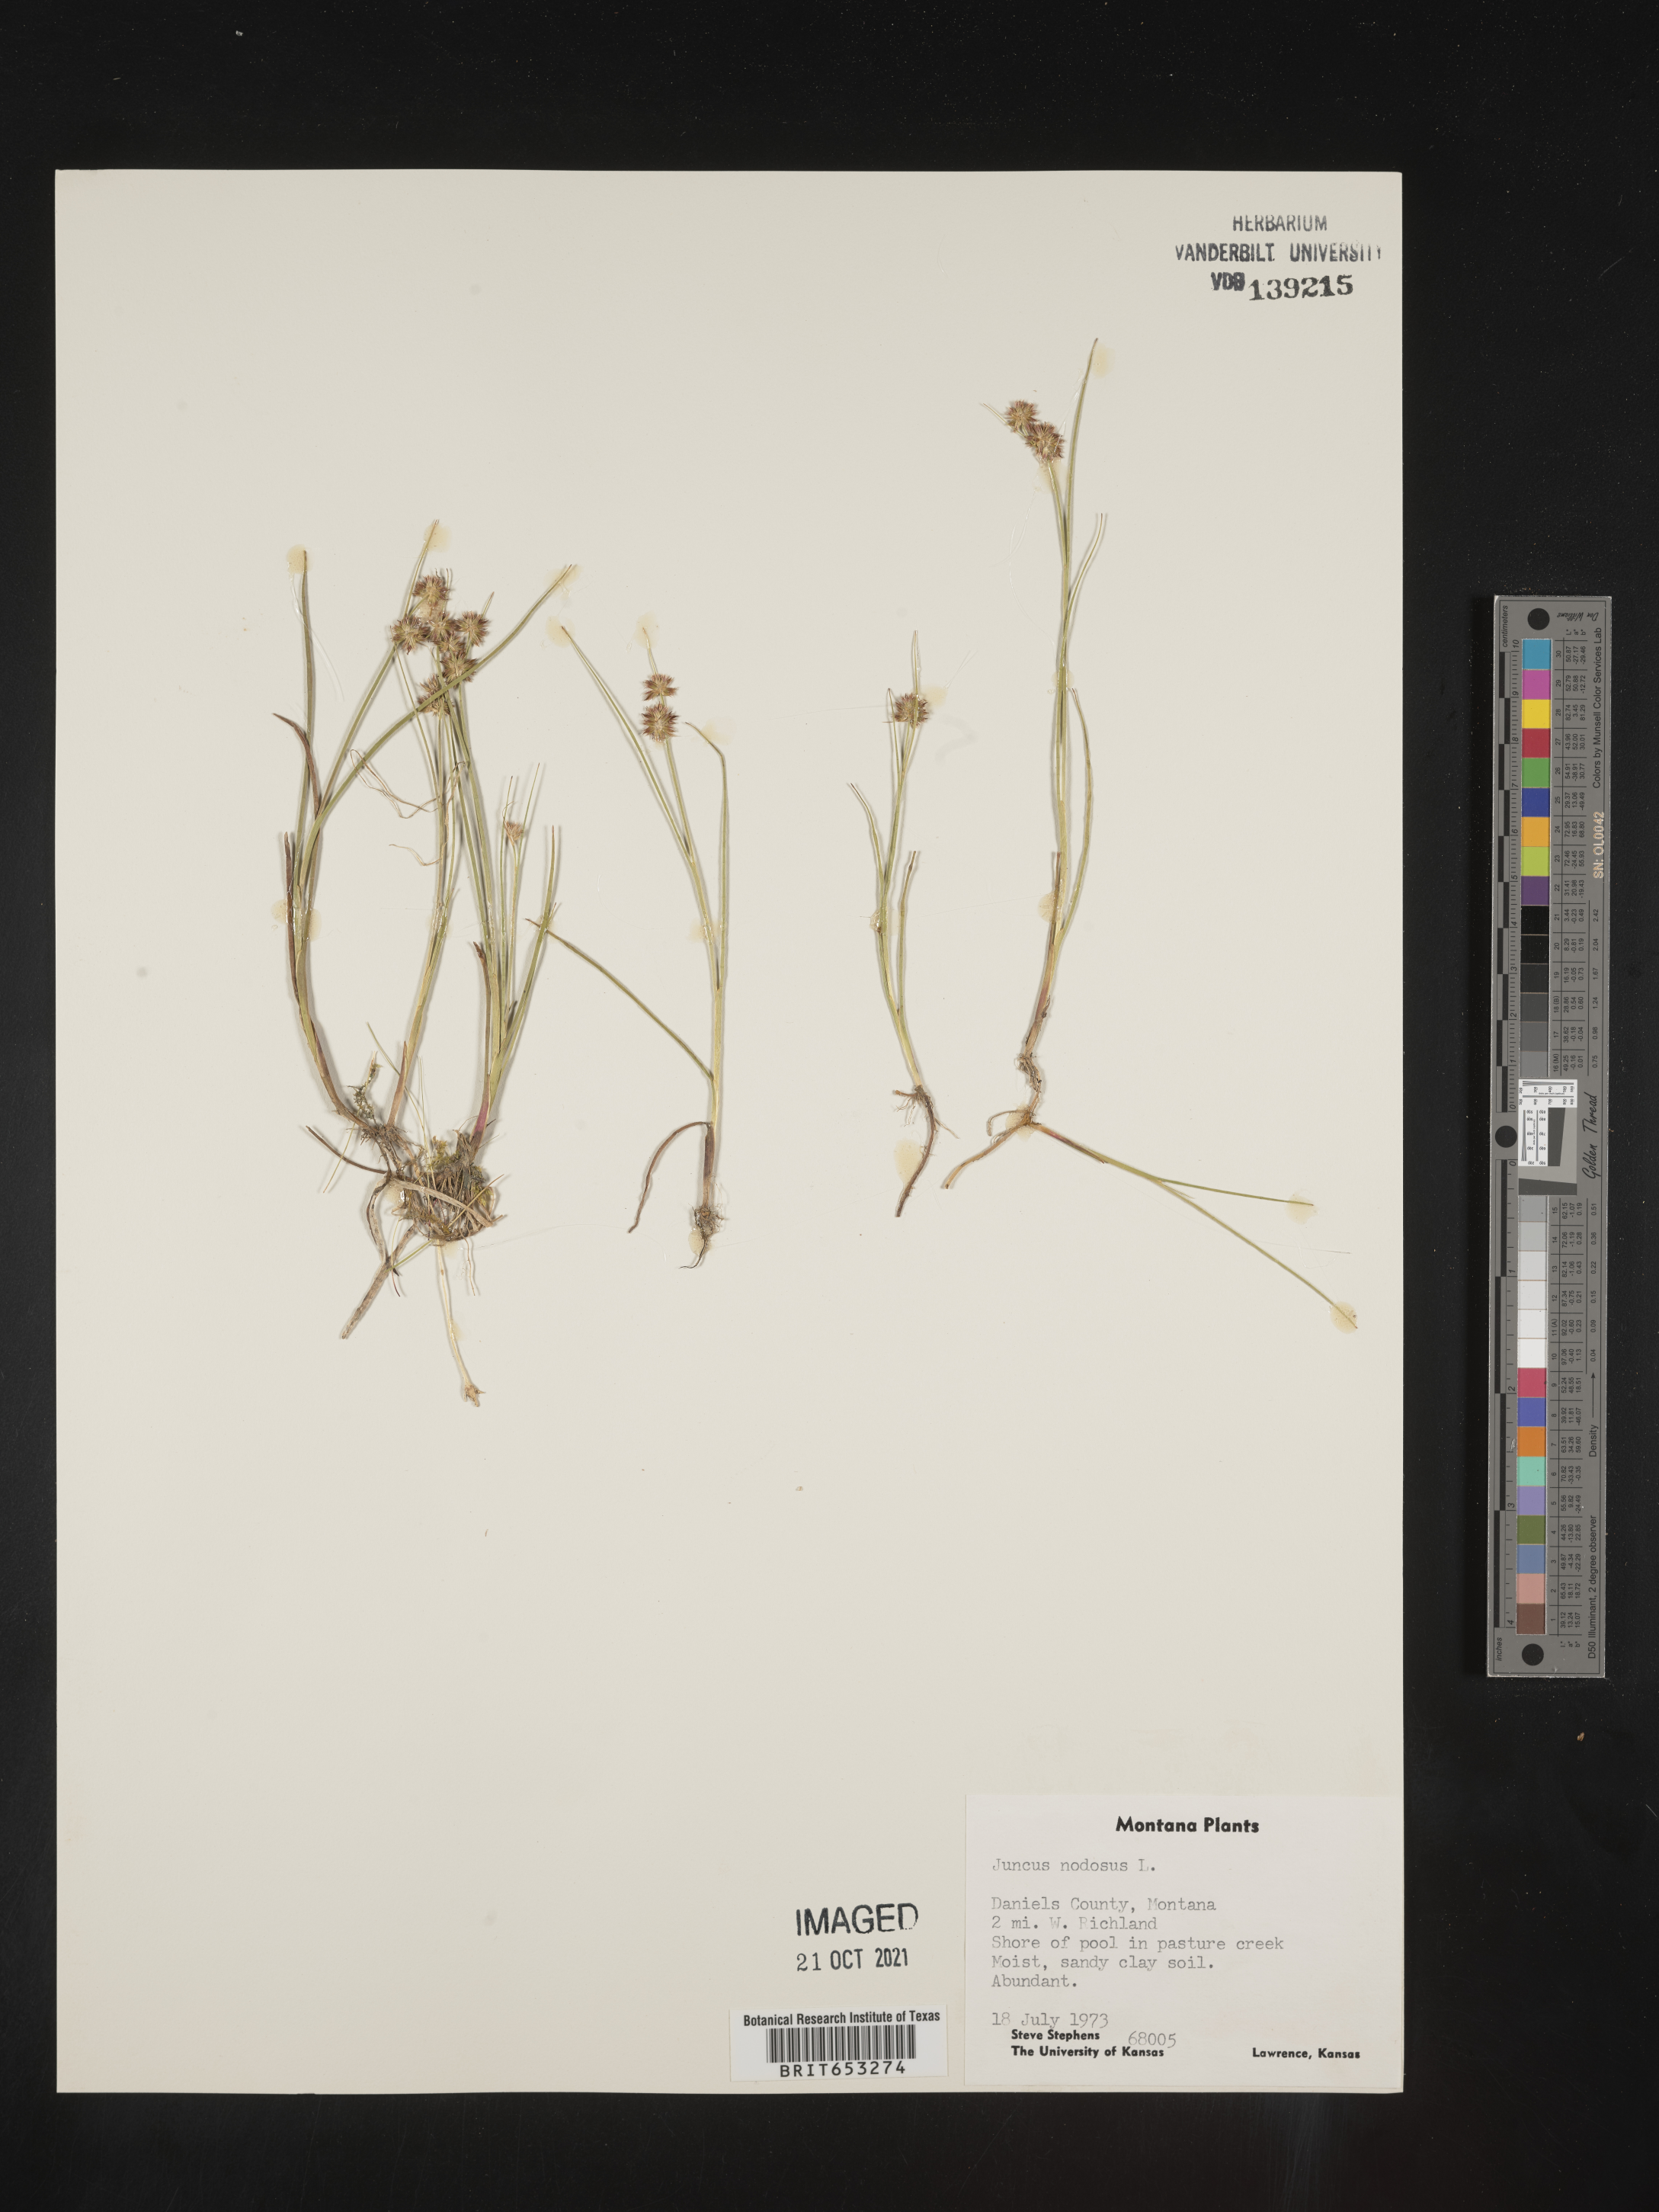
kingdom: Plantae
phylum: Tracheophyta
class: Liliopsida
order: Poales
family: Juncaceae
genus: Juncus
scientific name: Juncus nodosus
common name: Knotted rush
